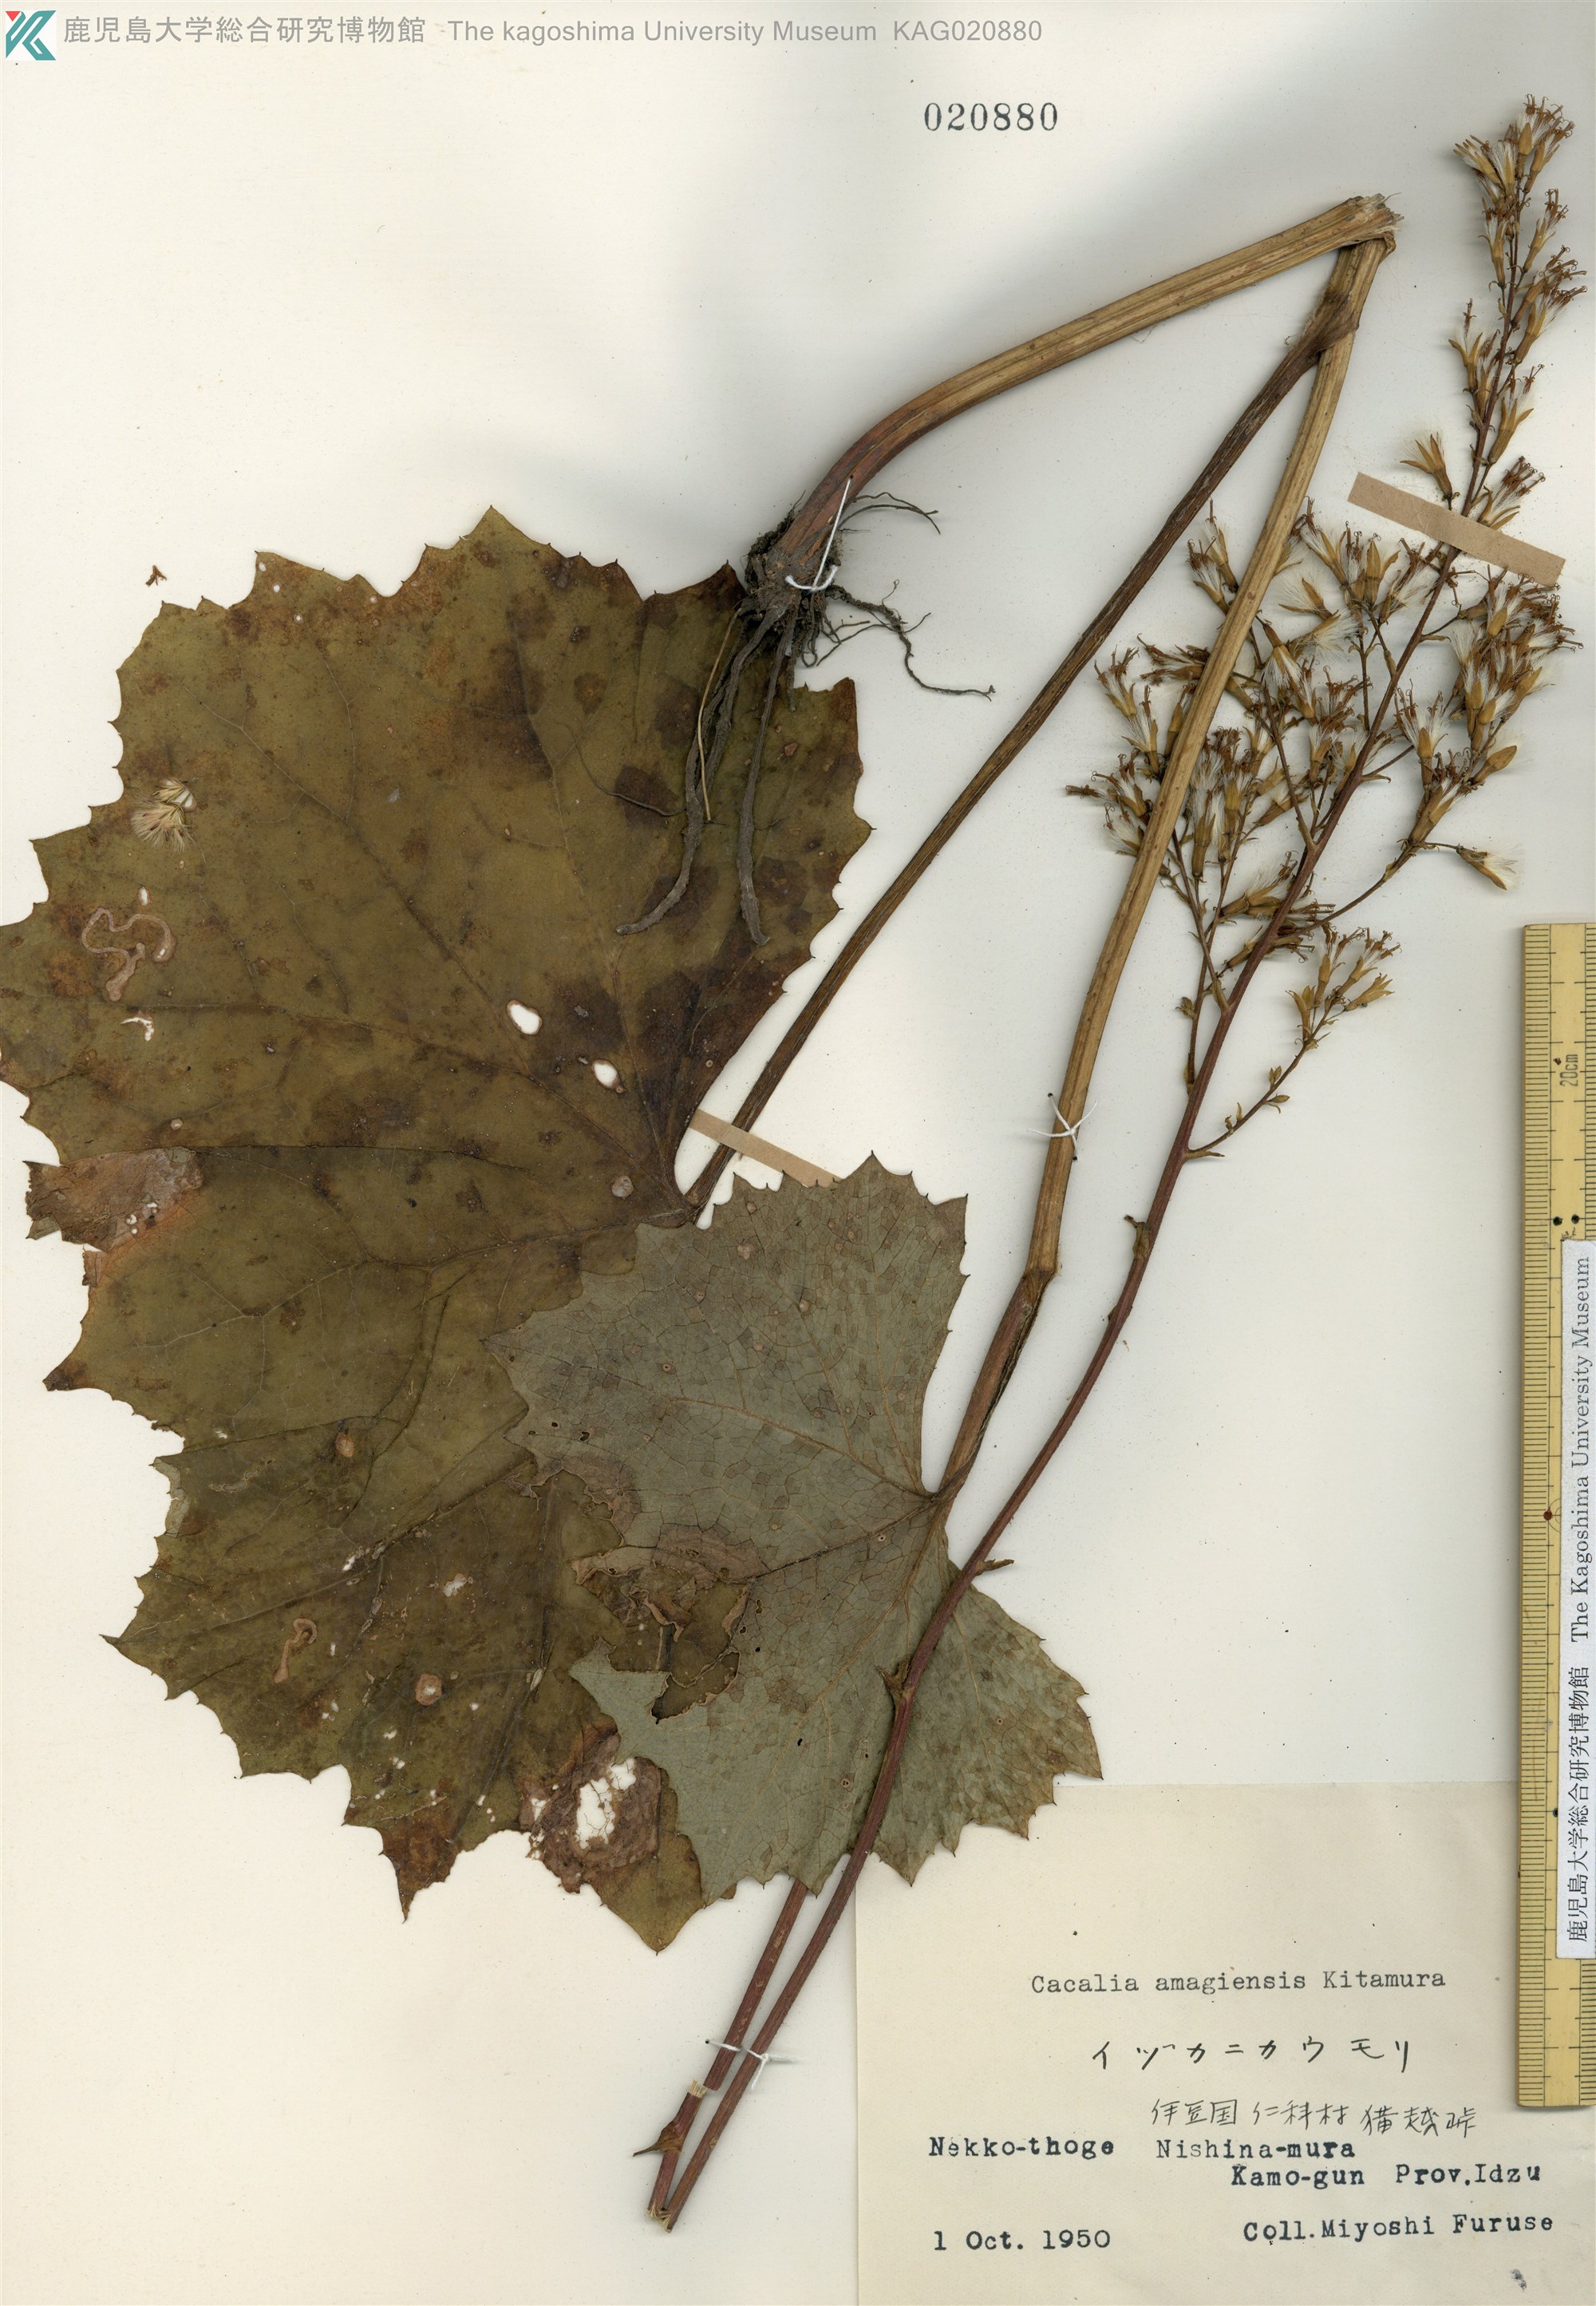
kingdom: Plantae
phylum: Tracheophyta
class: Magnoliopsida
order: Asterales
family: Asteraceae
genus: Taimingasa
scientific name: Taimingasa amagiensis
